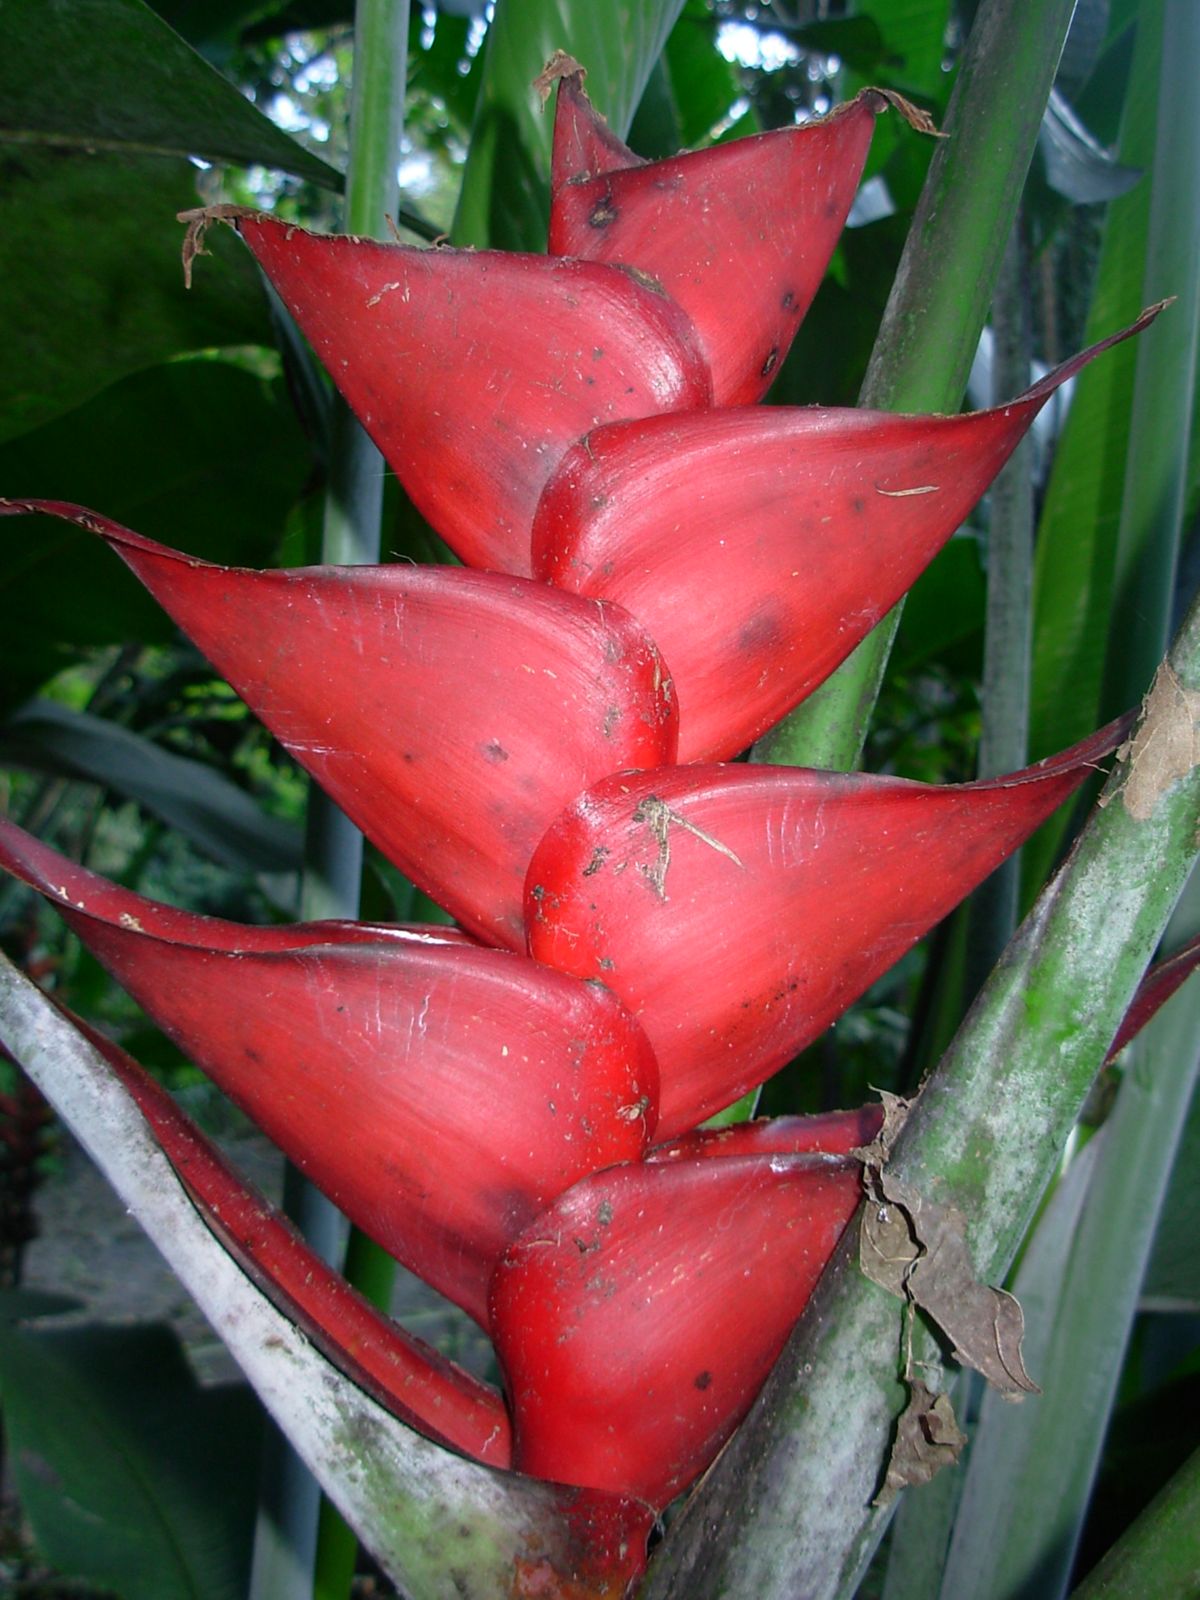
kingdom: Plantae
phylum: Tracheophyta
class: Liliopsida
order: Zingiberales
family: Heliconiaceae
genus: Heliconia
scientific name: Heliconia caribaea
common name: Wild plantain
